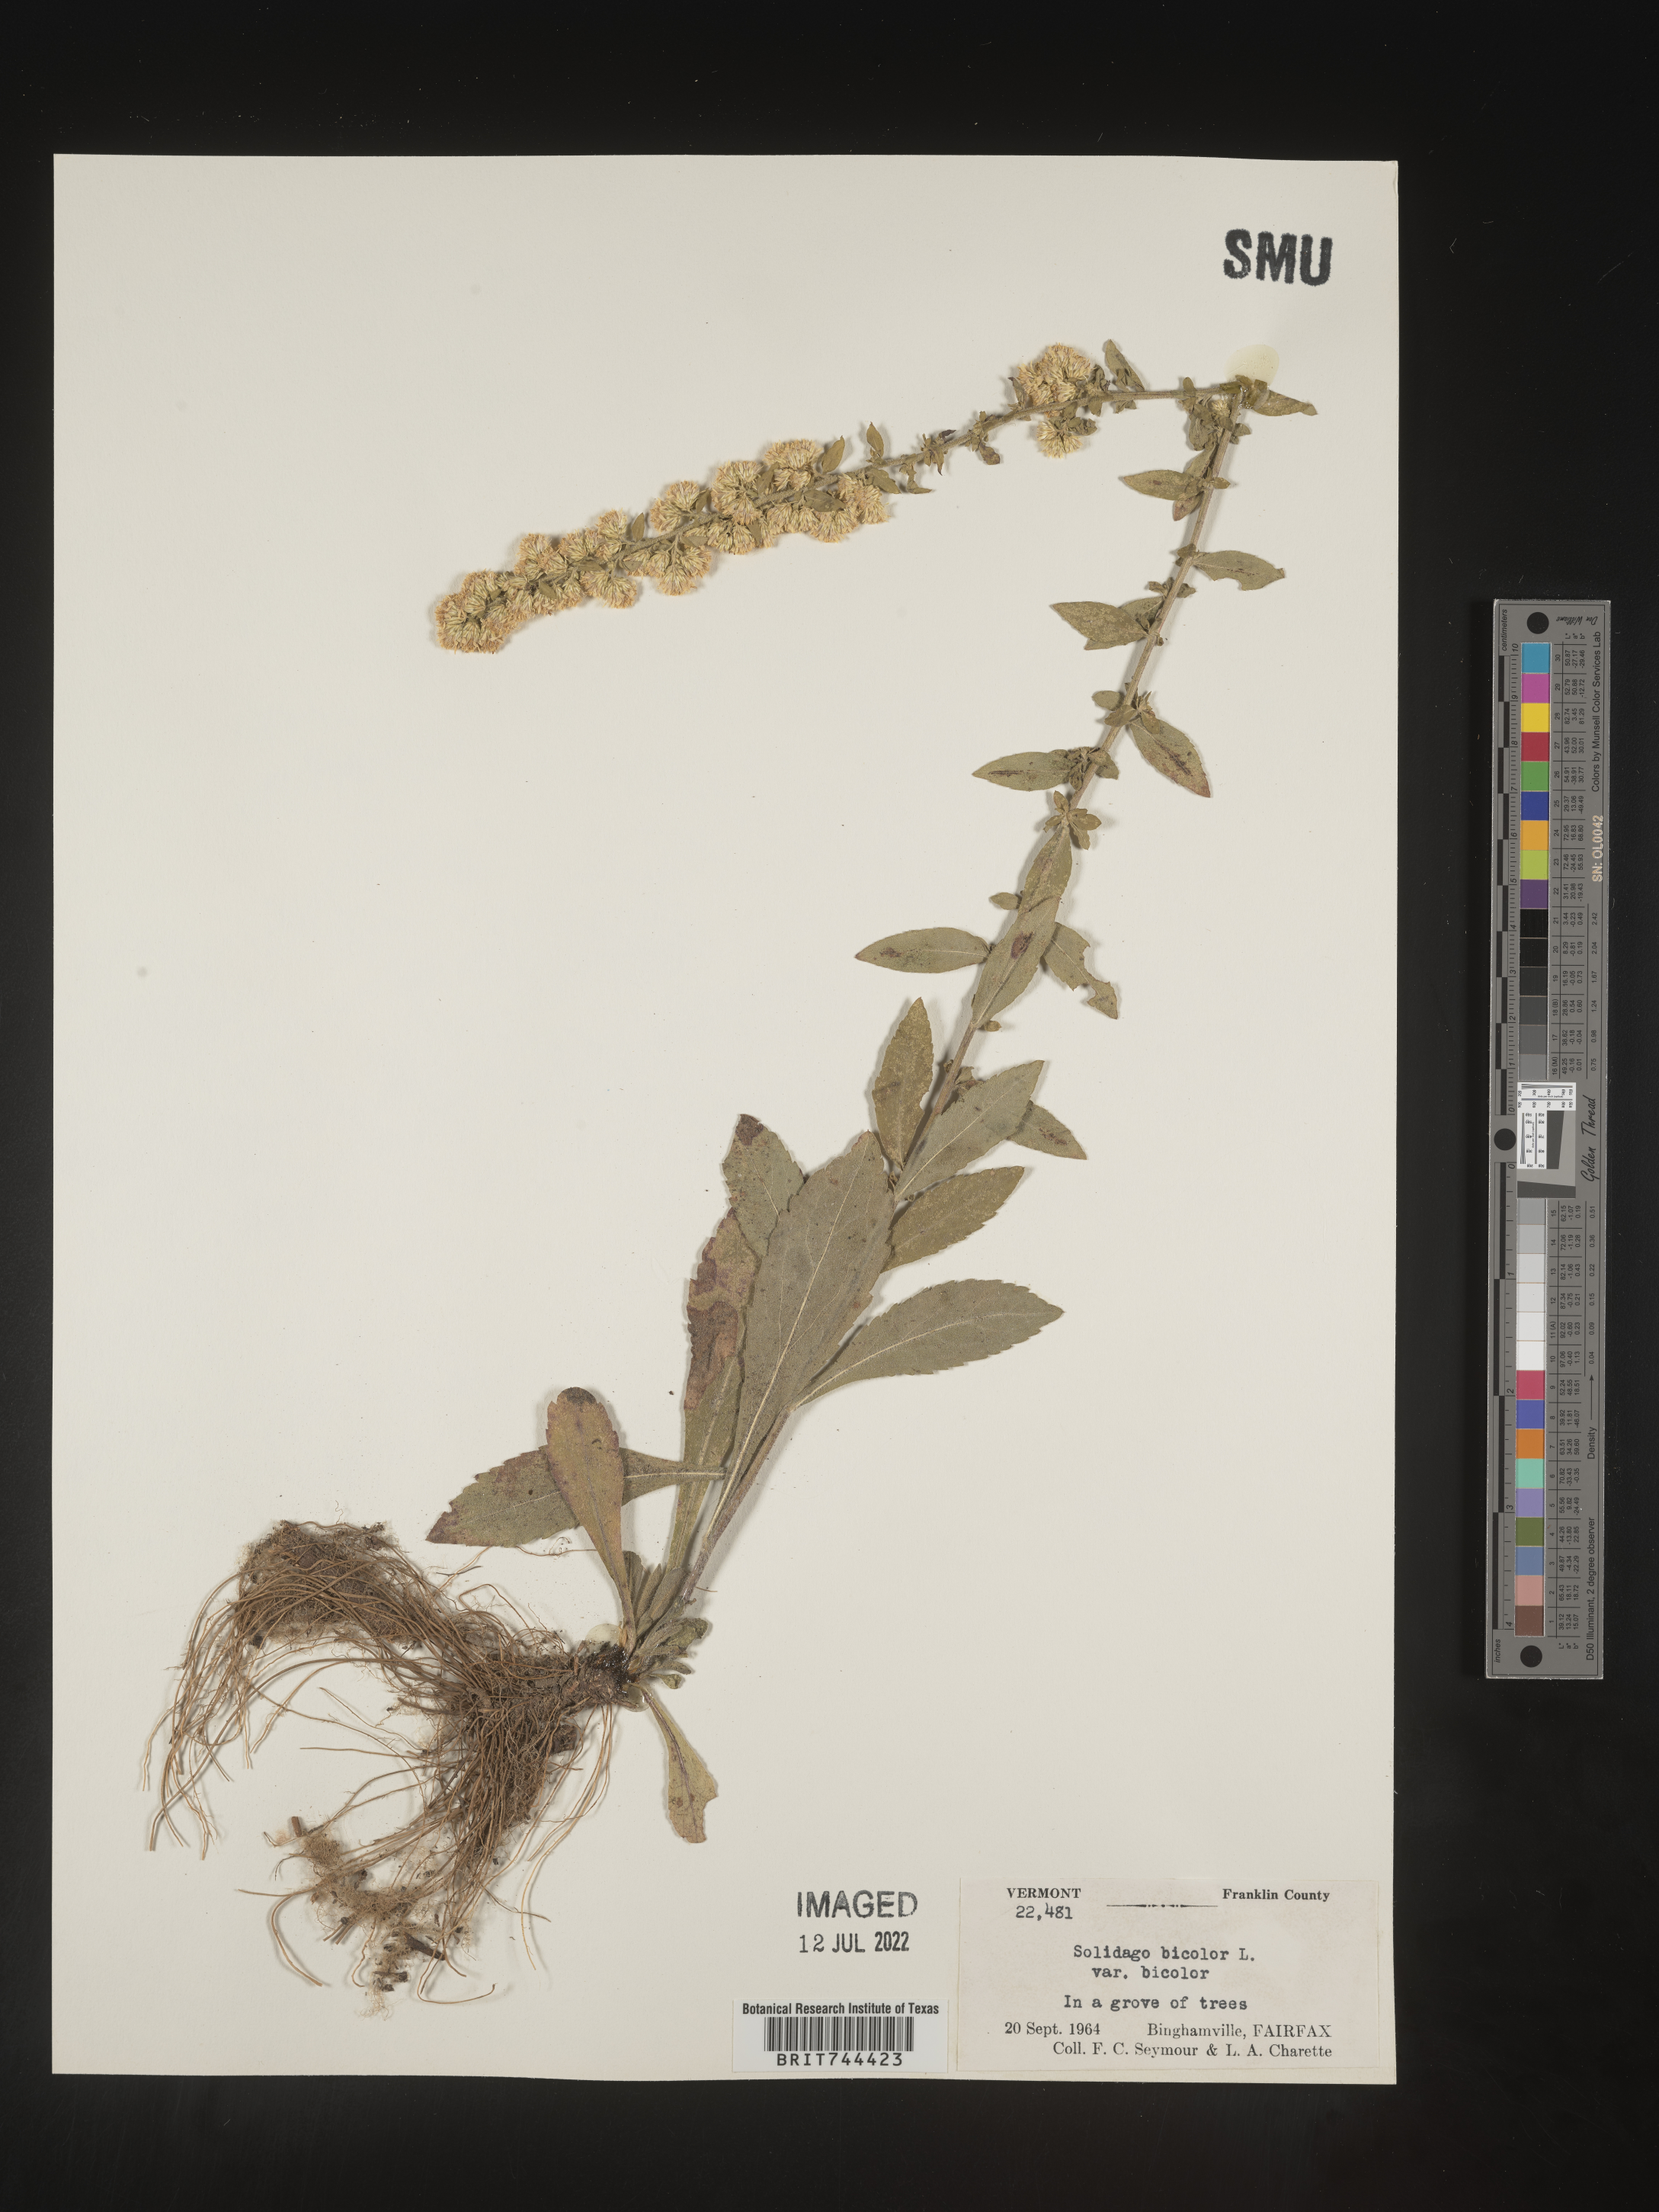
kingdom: Plantae
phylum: Tracheophyta
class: Magnoliopsida
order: Asterales
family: Asteraceae
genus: Solidago
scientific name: Solidago bicolor
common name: Silverrod
